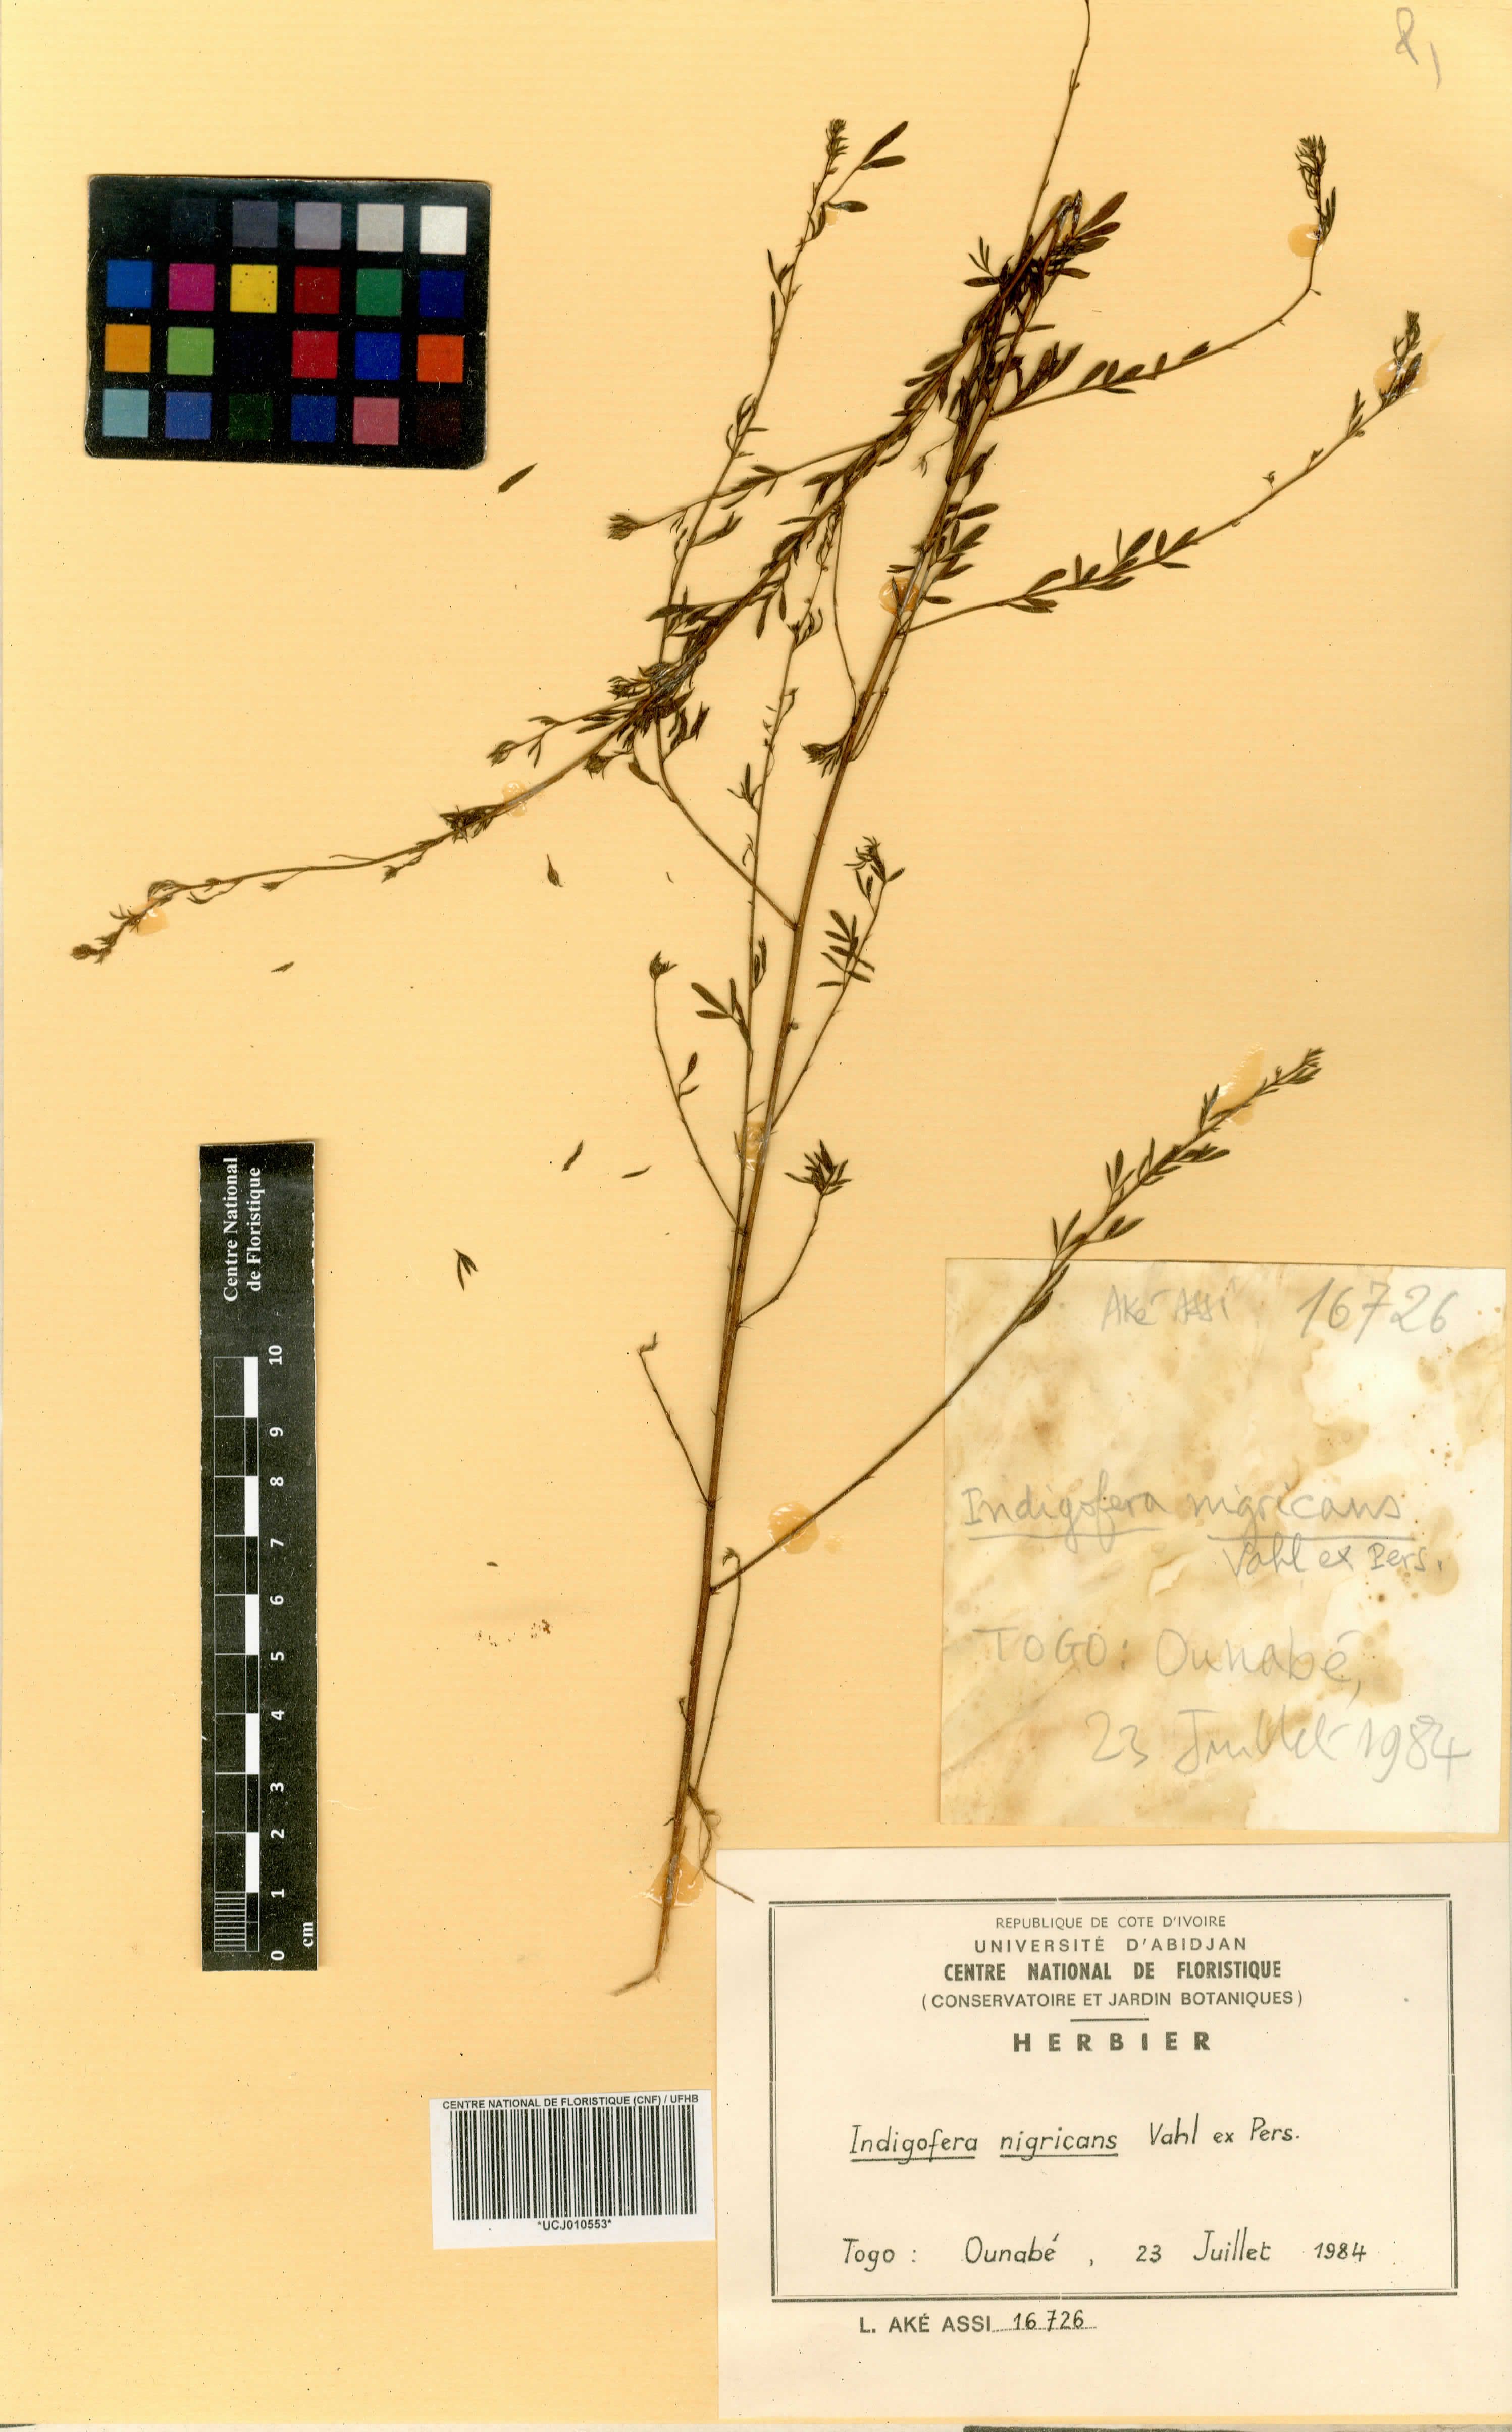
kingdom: Plantae
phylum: Tracheophyta
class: Magnoliopsida
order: Fabales
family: Fabaceae
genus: Indigofera
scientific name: Indigofera nigricans
